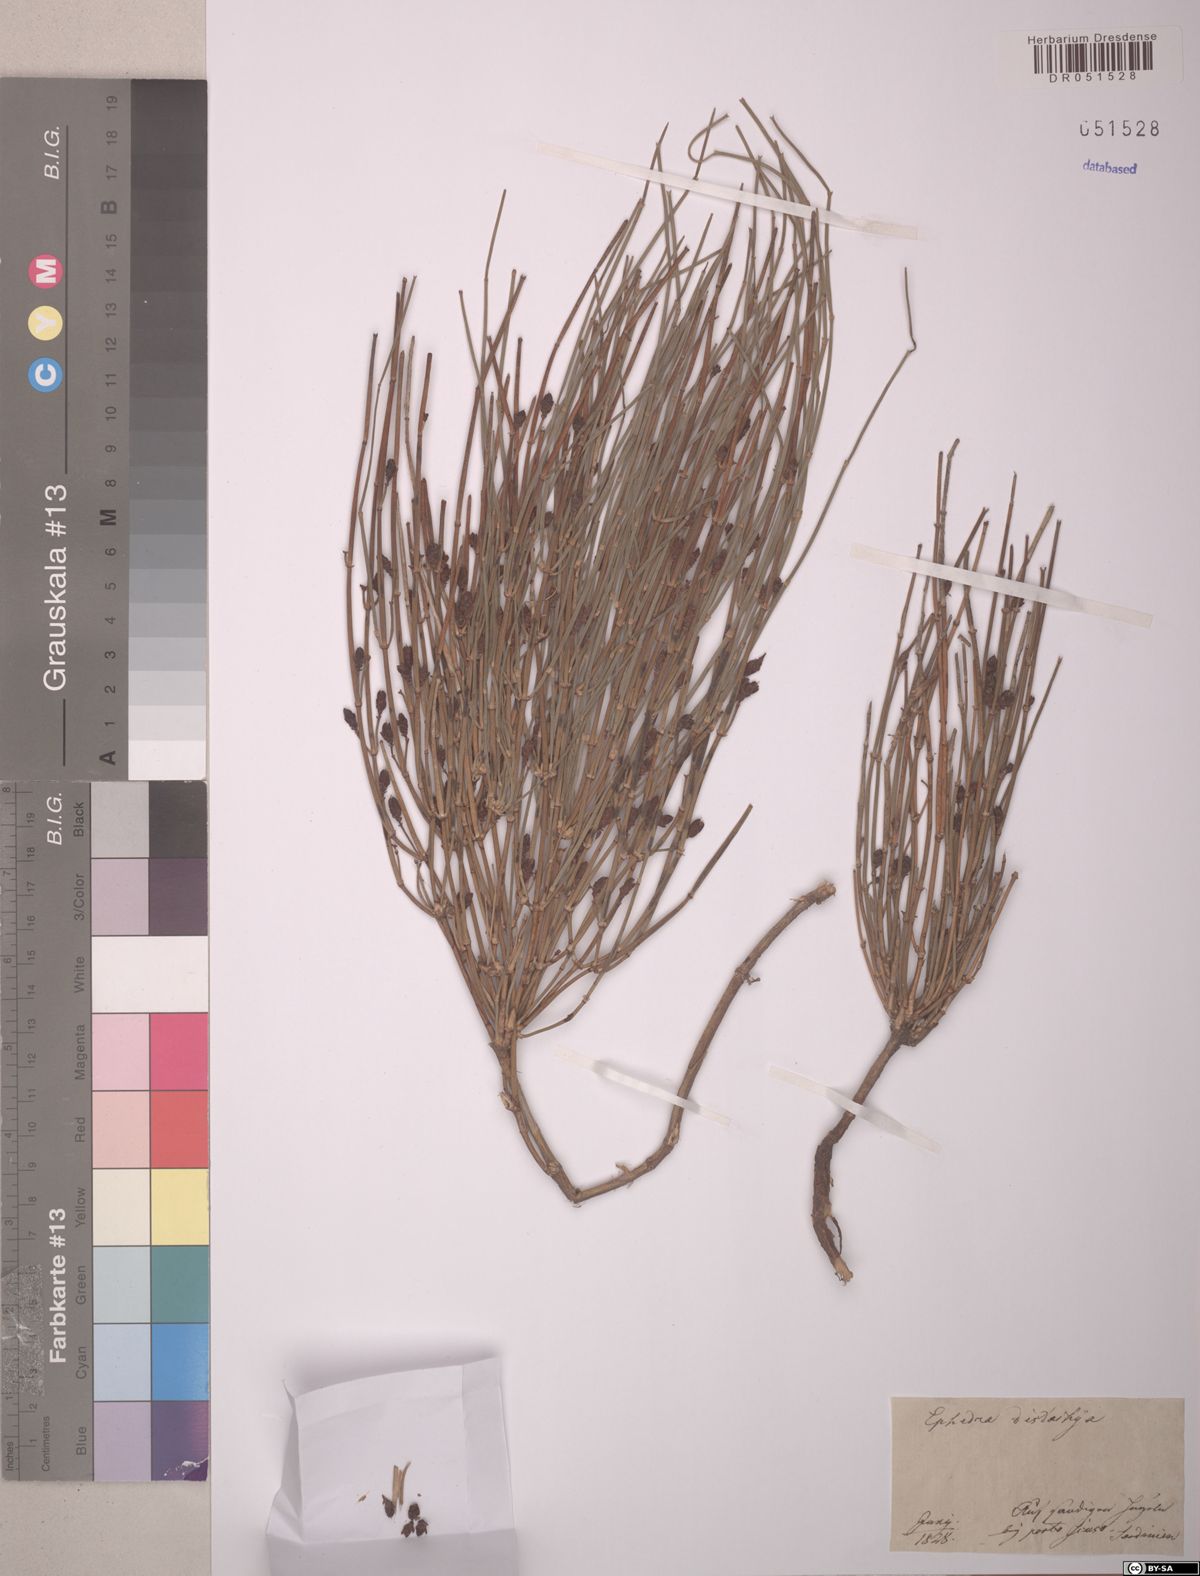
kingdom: Plantae
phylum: Tracheophyta
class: Gnetopsida
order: Ephedrales
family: Ephedraceae
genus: Ephedra
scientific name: Ephedra distachya
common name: Sea grape
